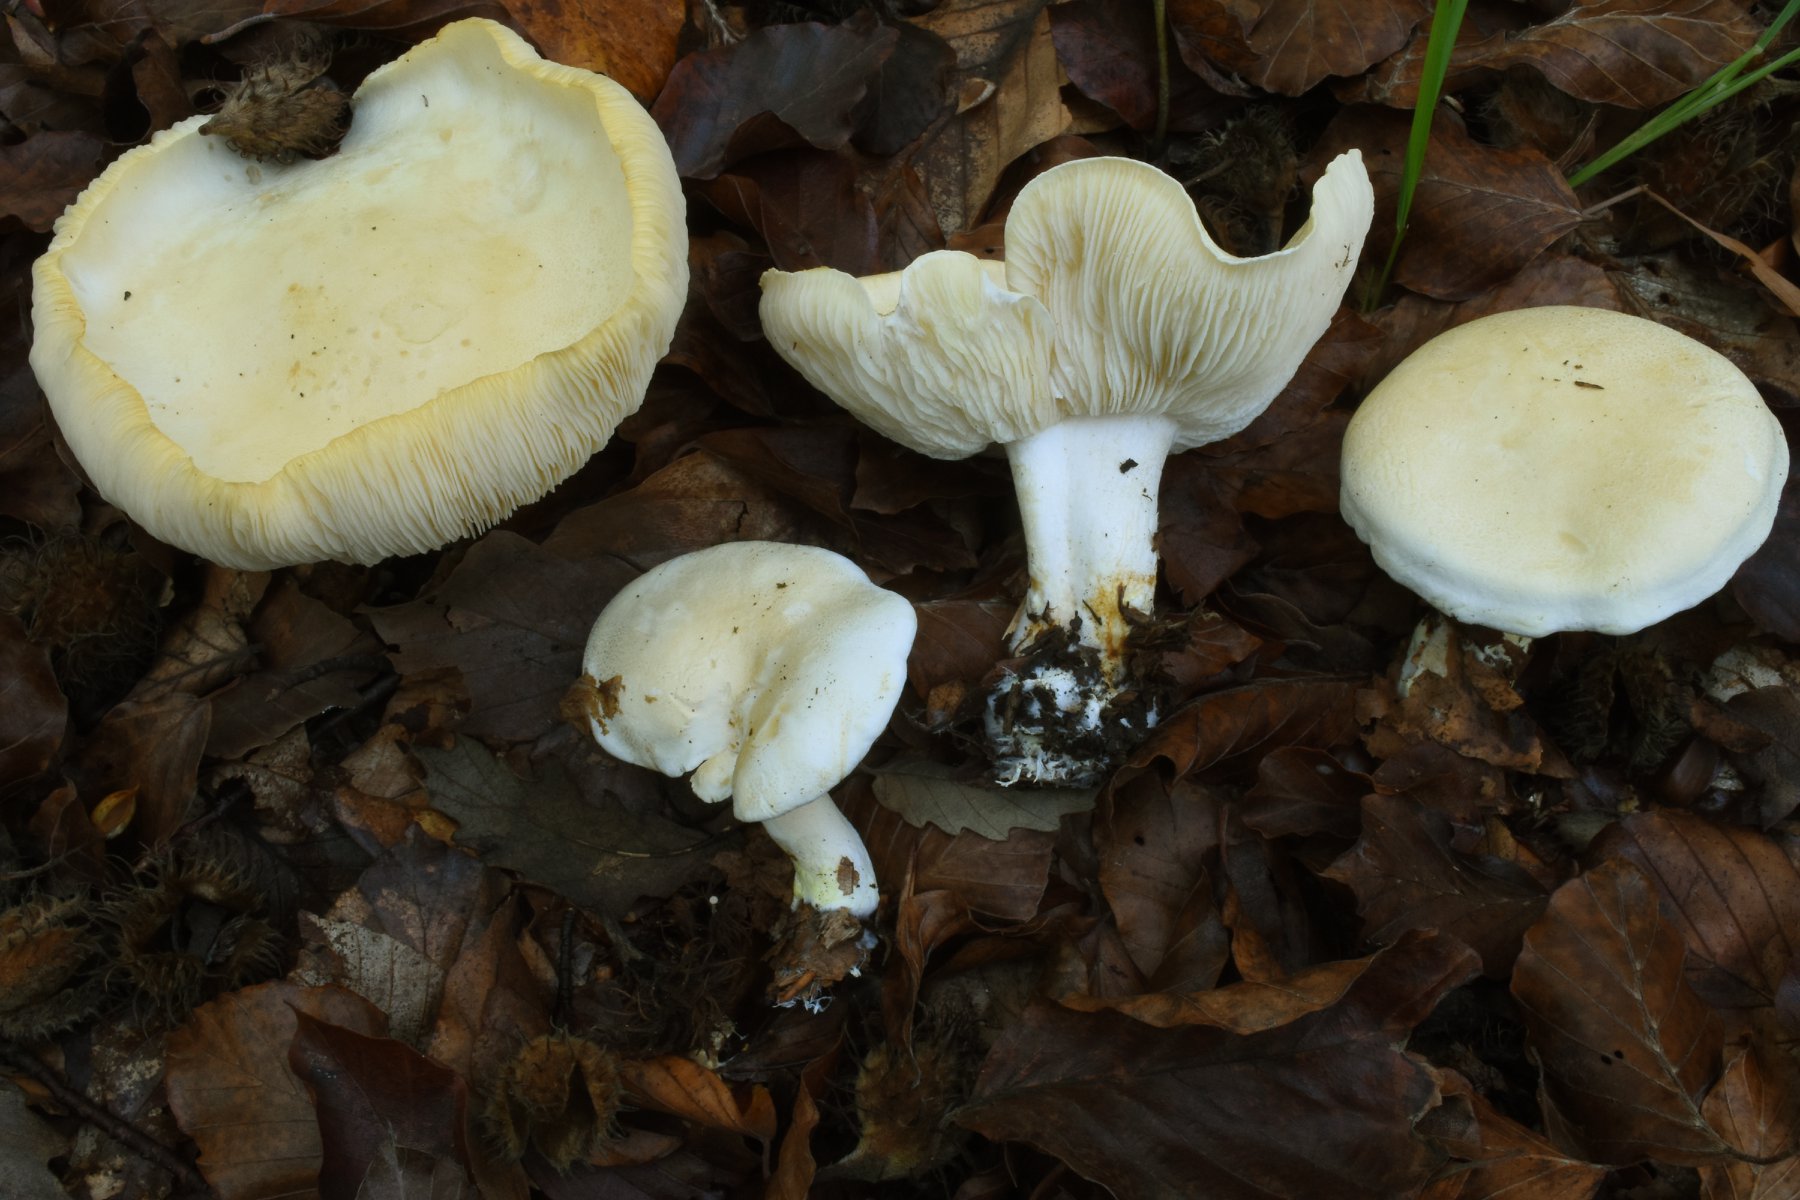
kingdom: Fungi
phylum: Basidiomycota
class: Agaricomycetes
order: Agaricales
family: Tricholomataceae
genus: Tricholoma
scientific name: Tricholoma sulphurescens
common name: svovlplettet ridderhat
